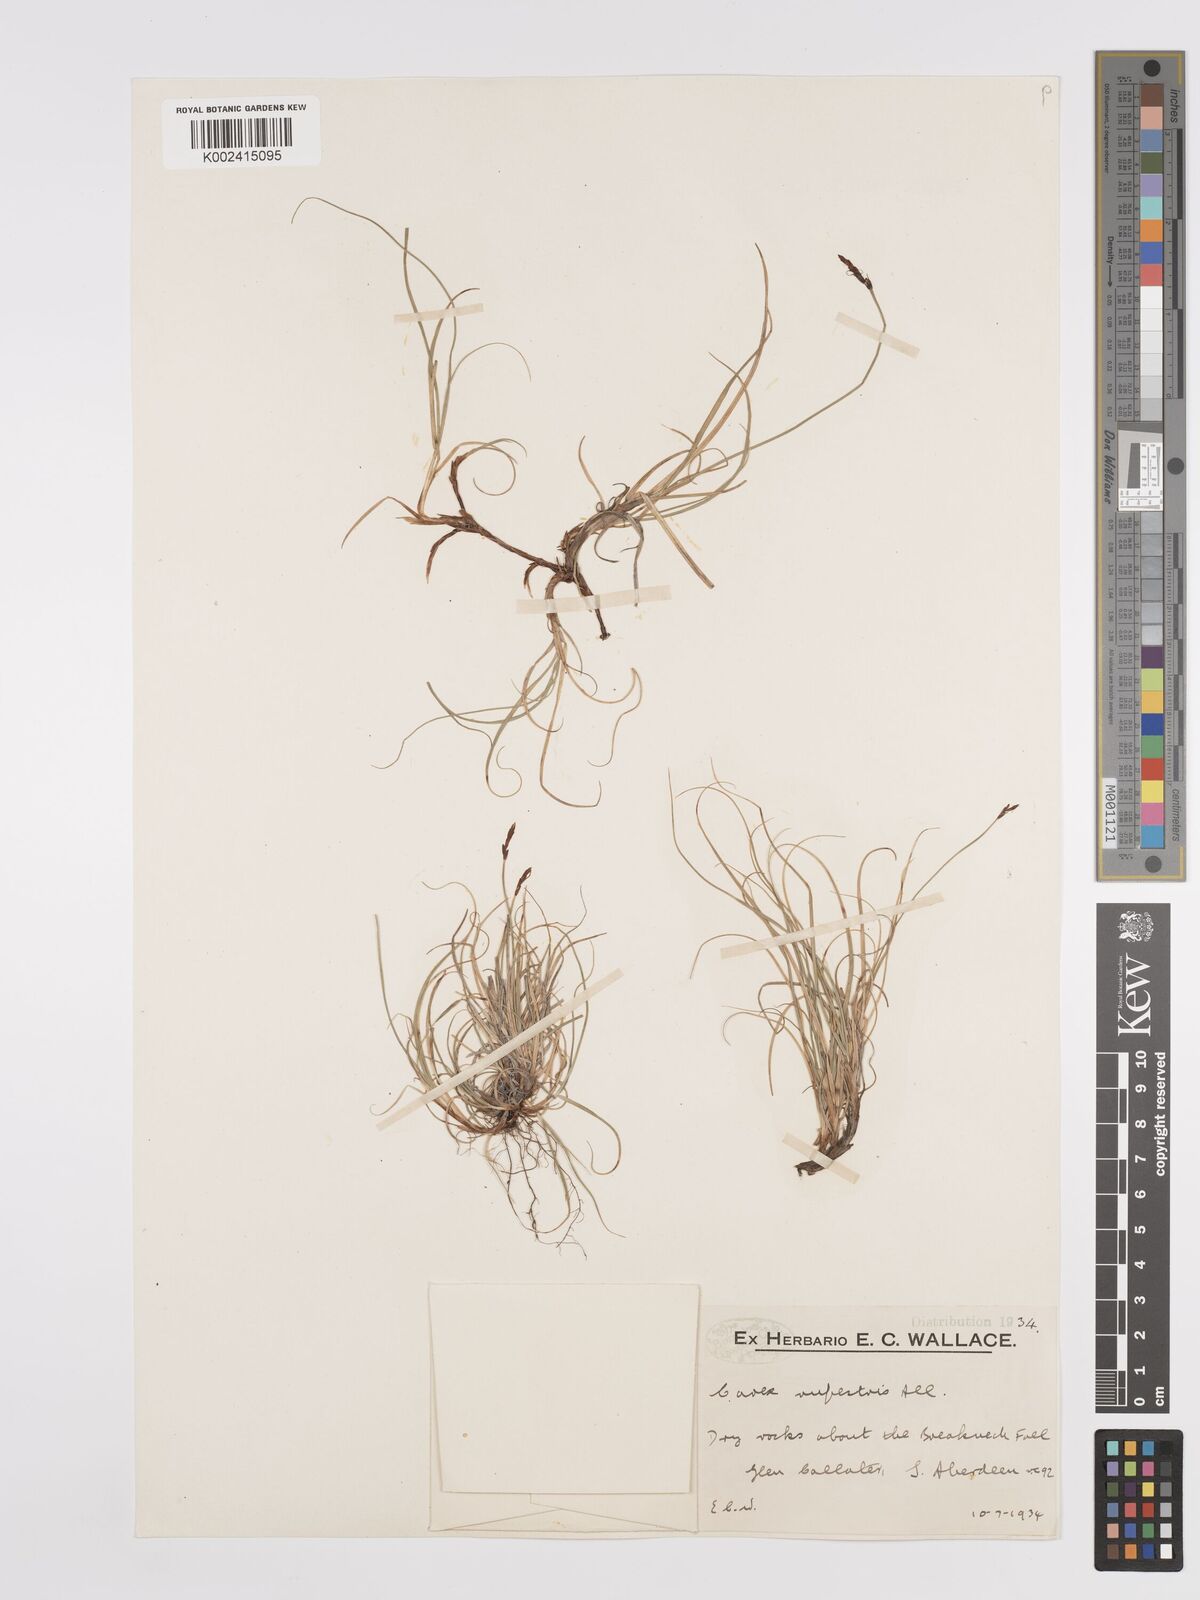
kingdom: Plantae
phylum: Tracheophyta
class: Liliopsida
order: Poales
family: Cyperaceae
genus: Carex
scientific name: Carex rupestris
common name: Rock sedge
